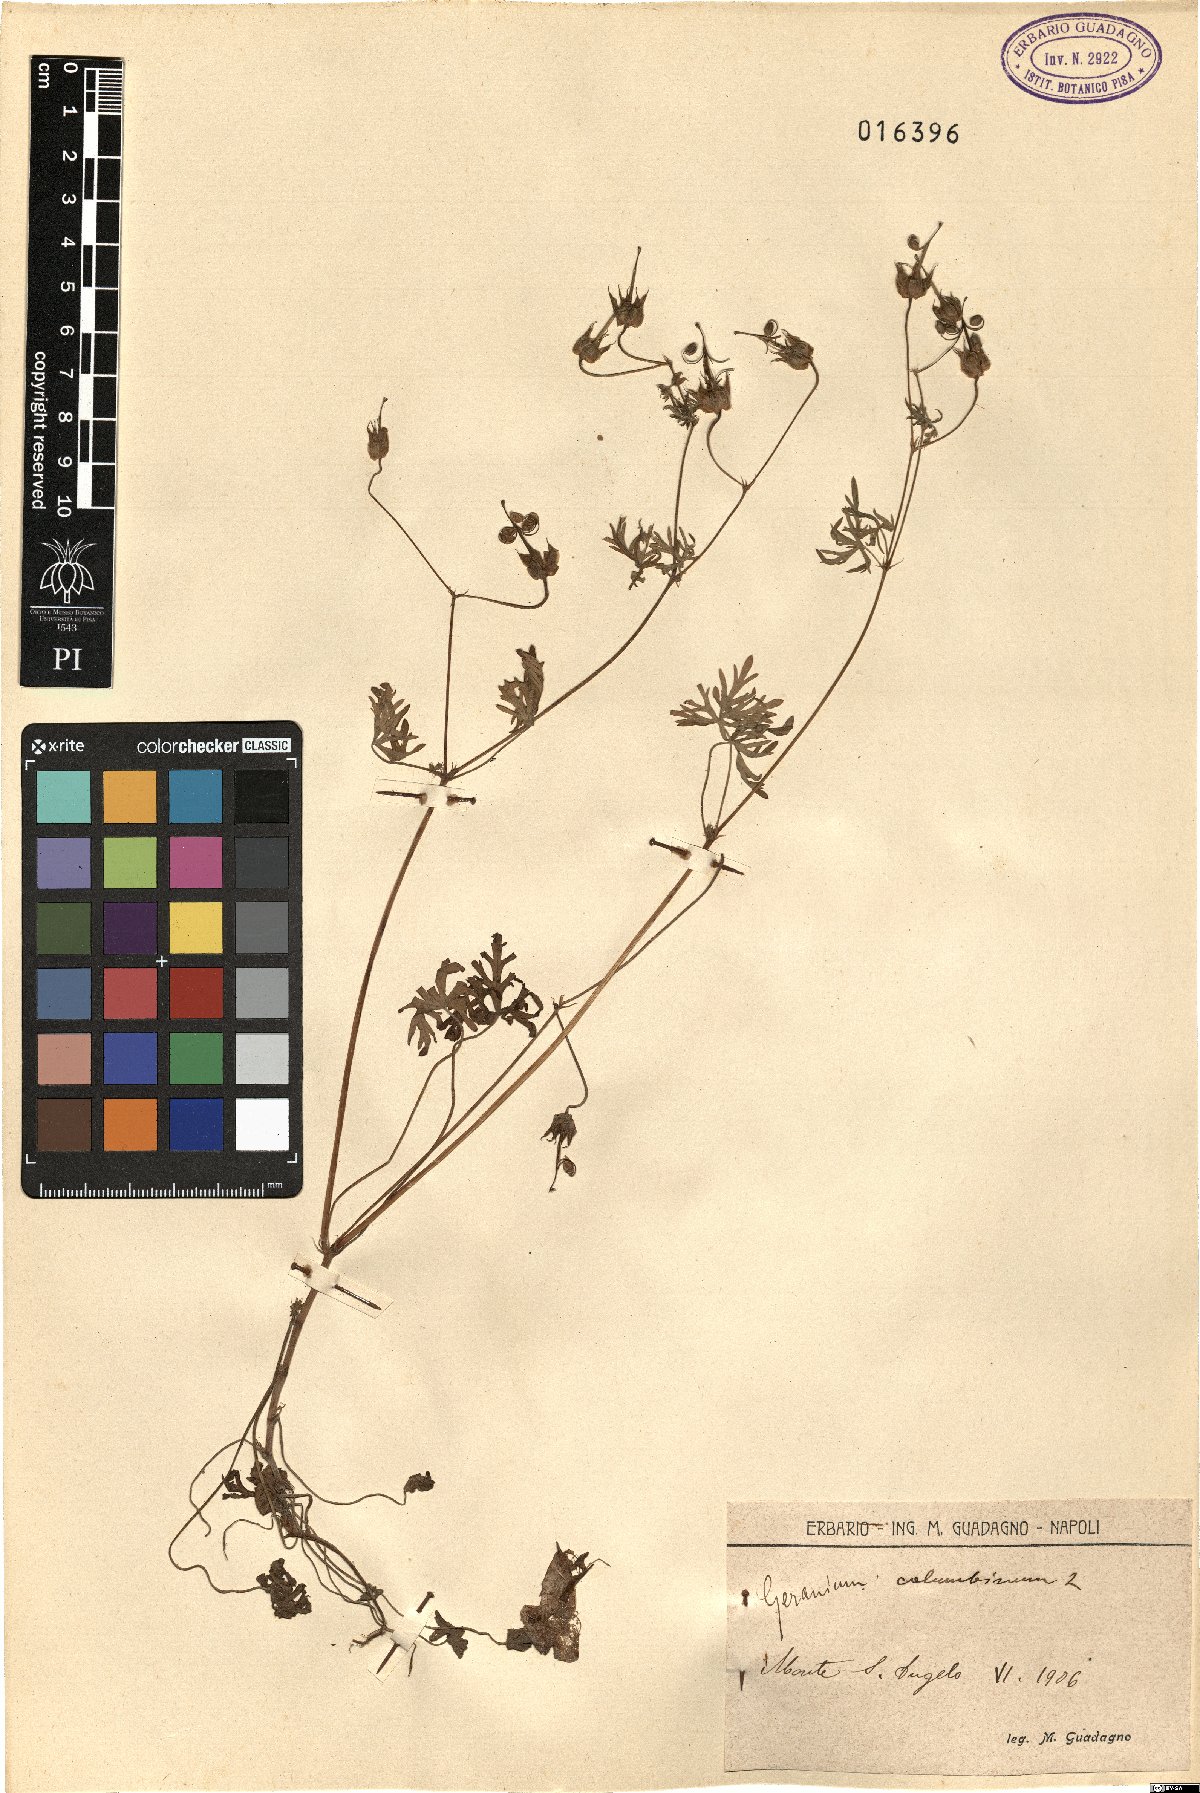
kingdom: Plantae
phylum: Tracheophyta
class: Magnoliopsida
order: Geraniales
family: Geraniaceae
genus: Geranium
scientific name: Geranium columbinum
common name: Long-stalked crane's-bill
